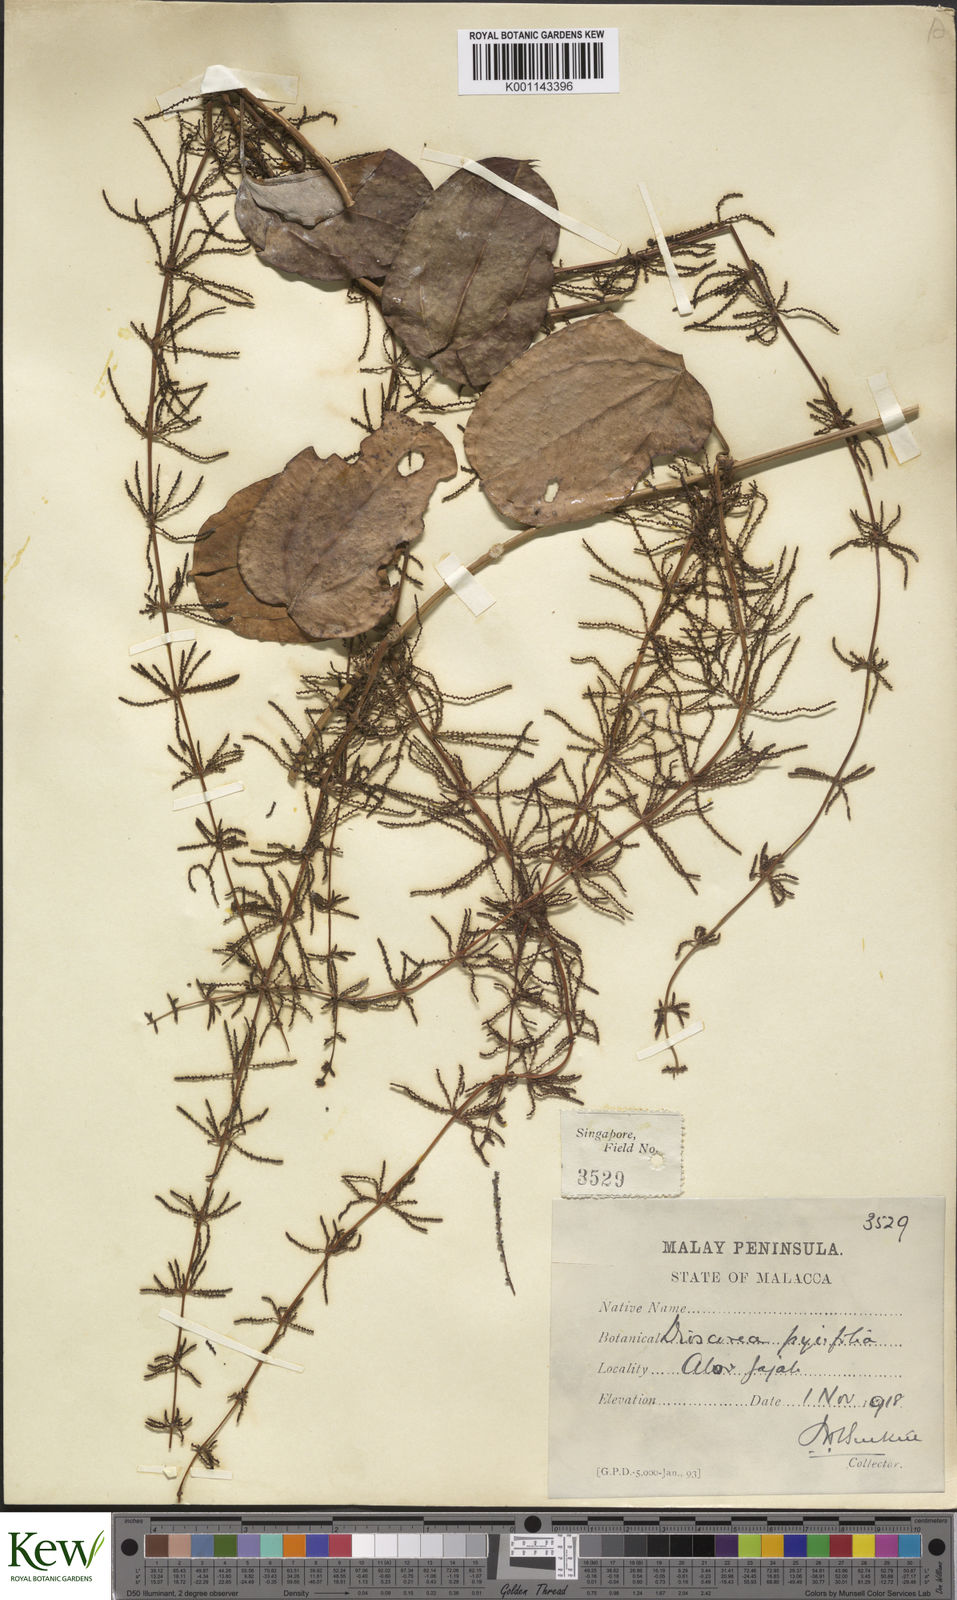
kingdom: Plantae
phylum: Tracheophyta
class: Liliopsida
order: Dioscoreales
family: Dioscoreaceae
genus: Dioscorea
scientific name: Dioscorea pyrifolia
